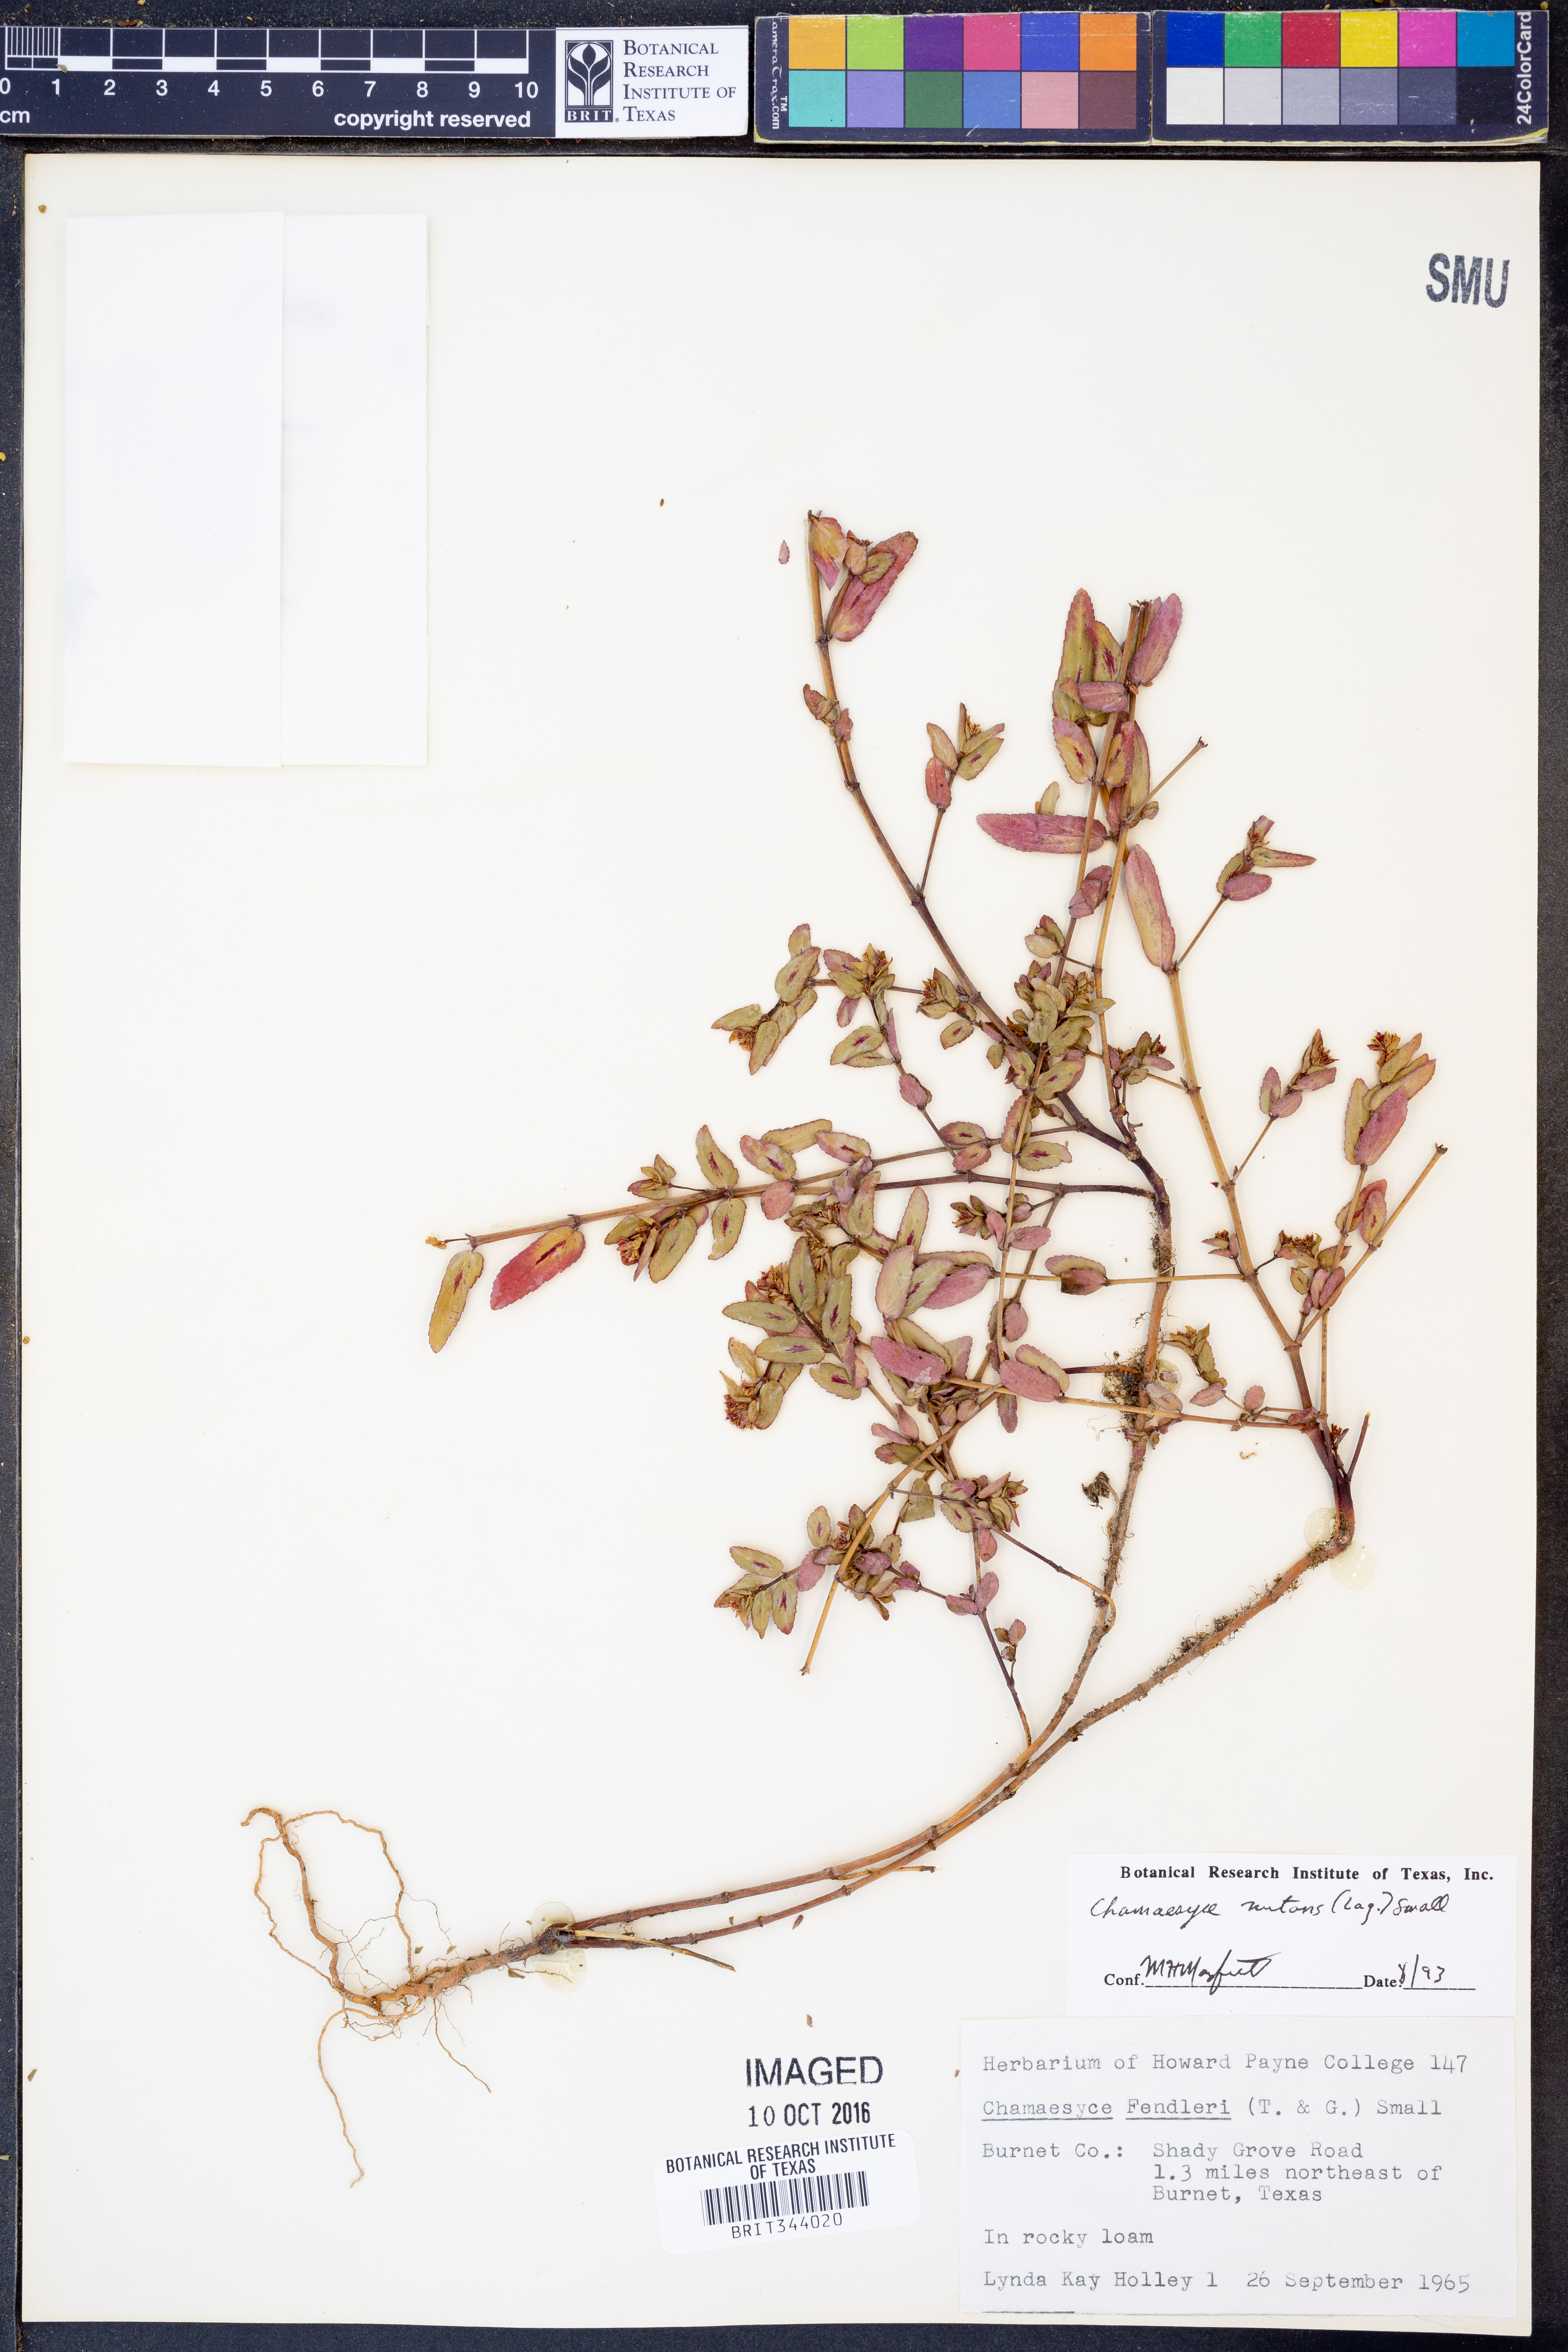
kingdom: Plantae
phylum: Tracheophyta
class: Magnoliopsida
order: Malpighiales
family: Euphorbiaceae
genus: Euphorbia
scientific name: Euphorbia nutans
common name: Eyebane
